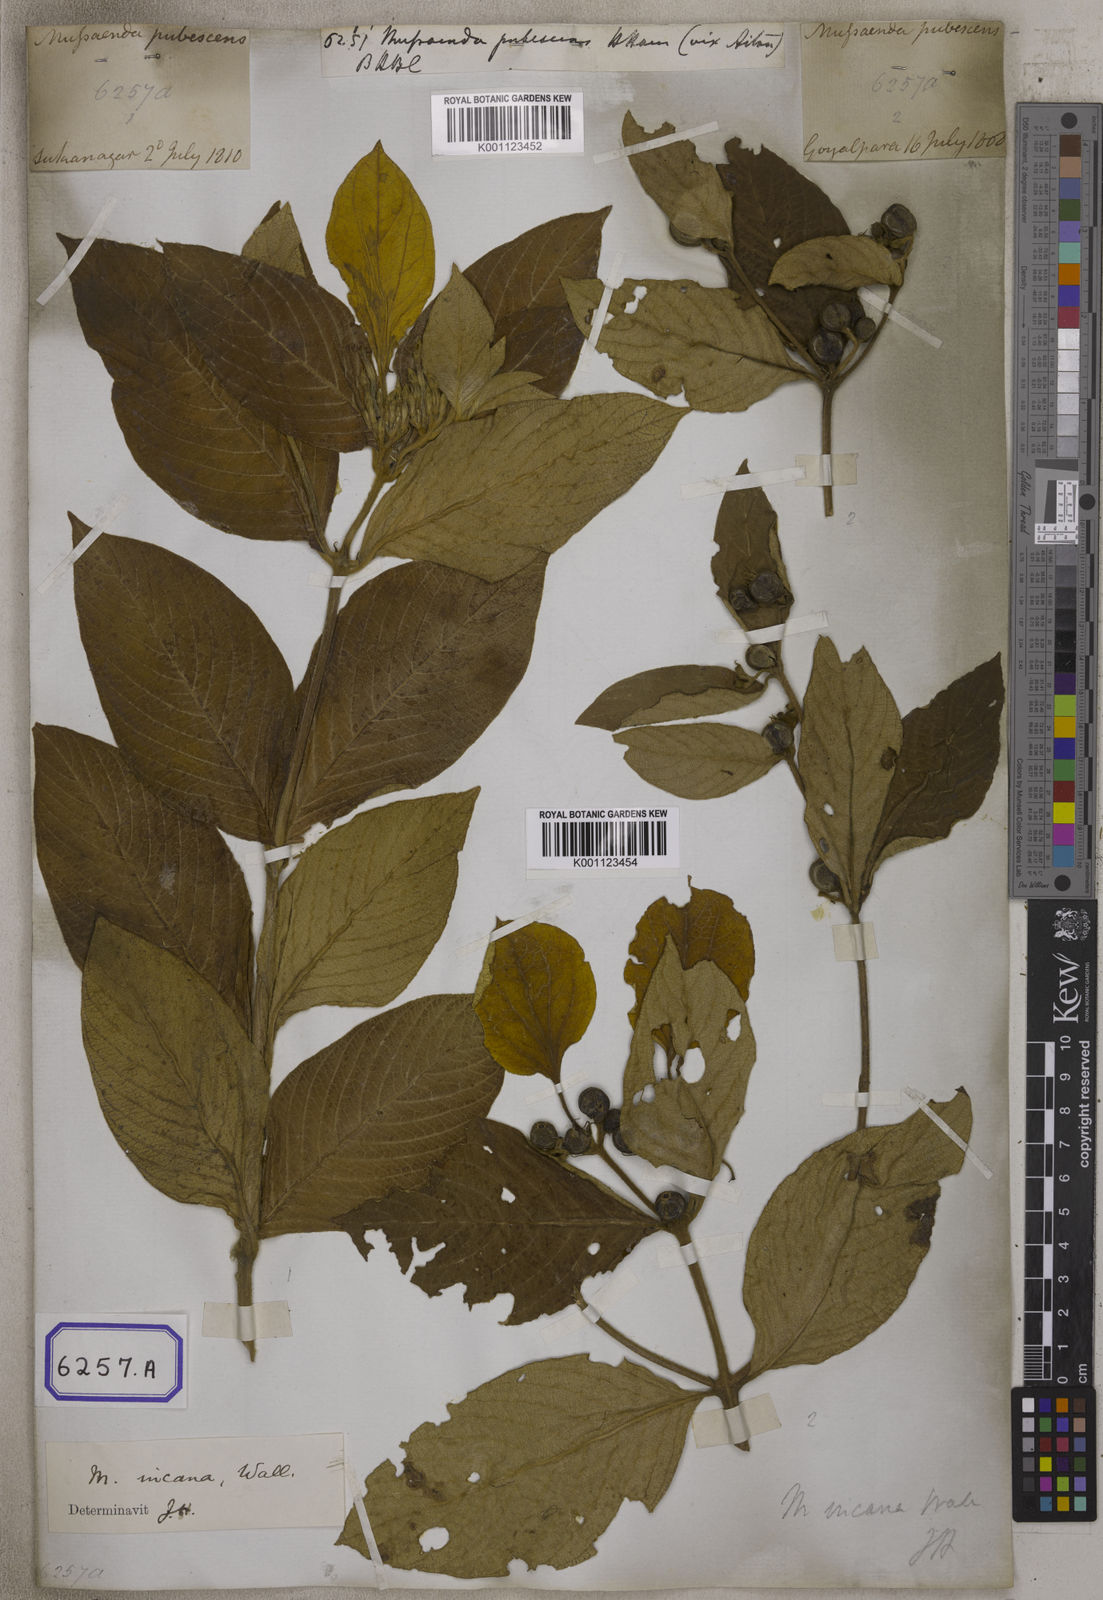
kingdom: Plantae
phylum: Tracheophyta
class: Magnoliopsida
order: Gentianales
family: Rubiaceae
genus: Mussaenda
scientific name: Mussaenda
